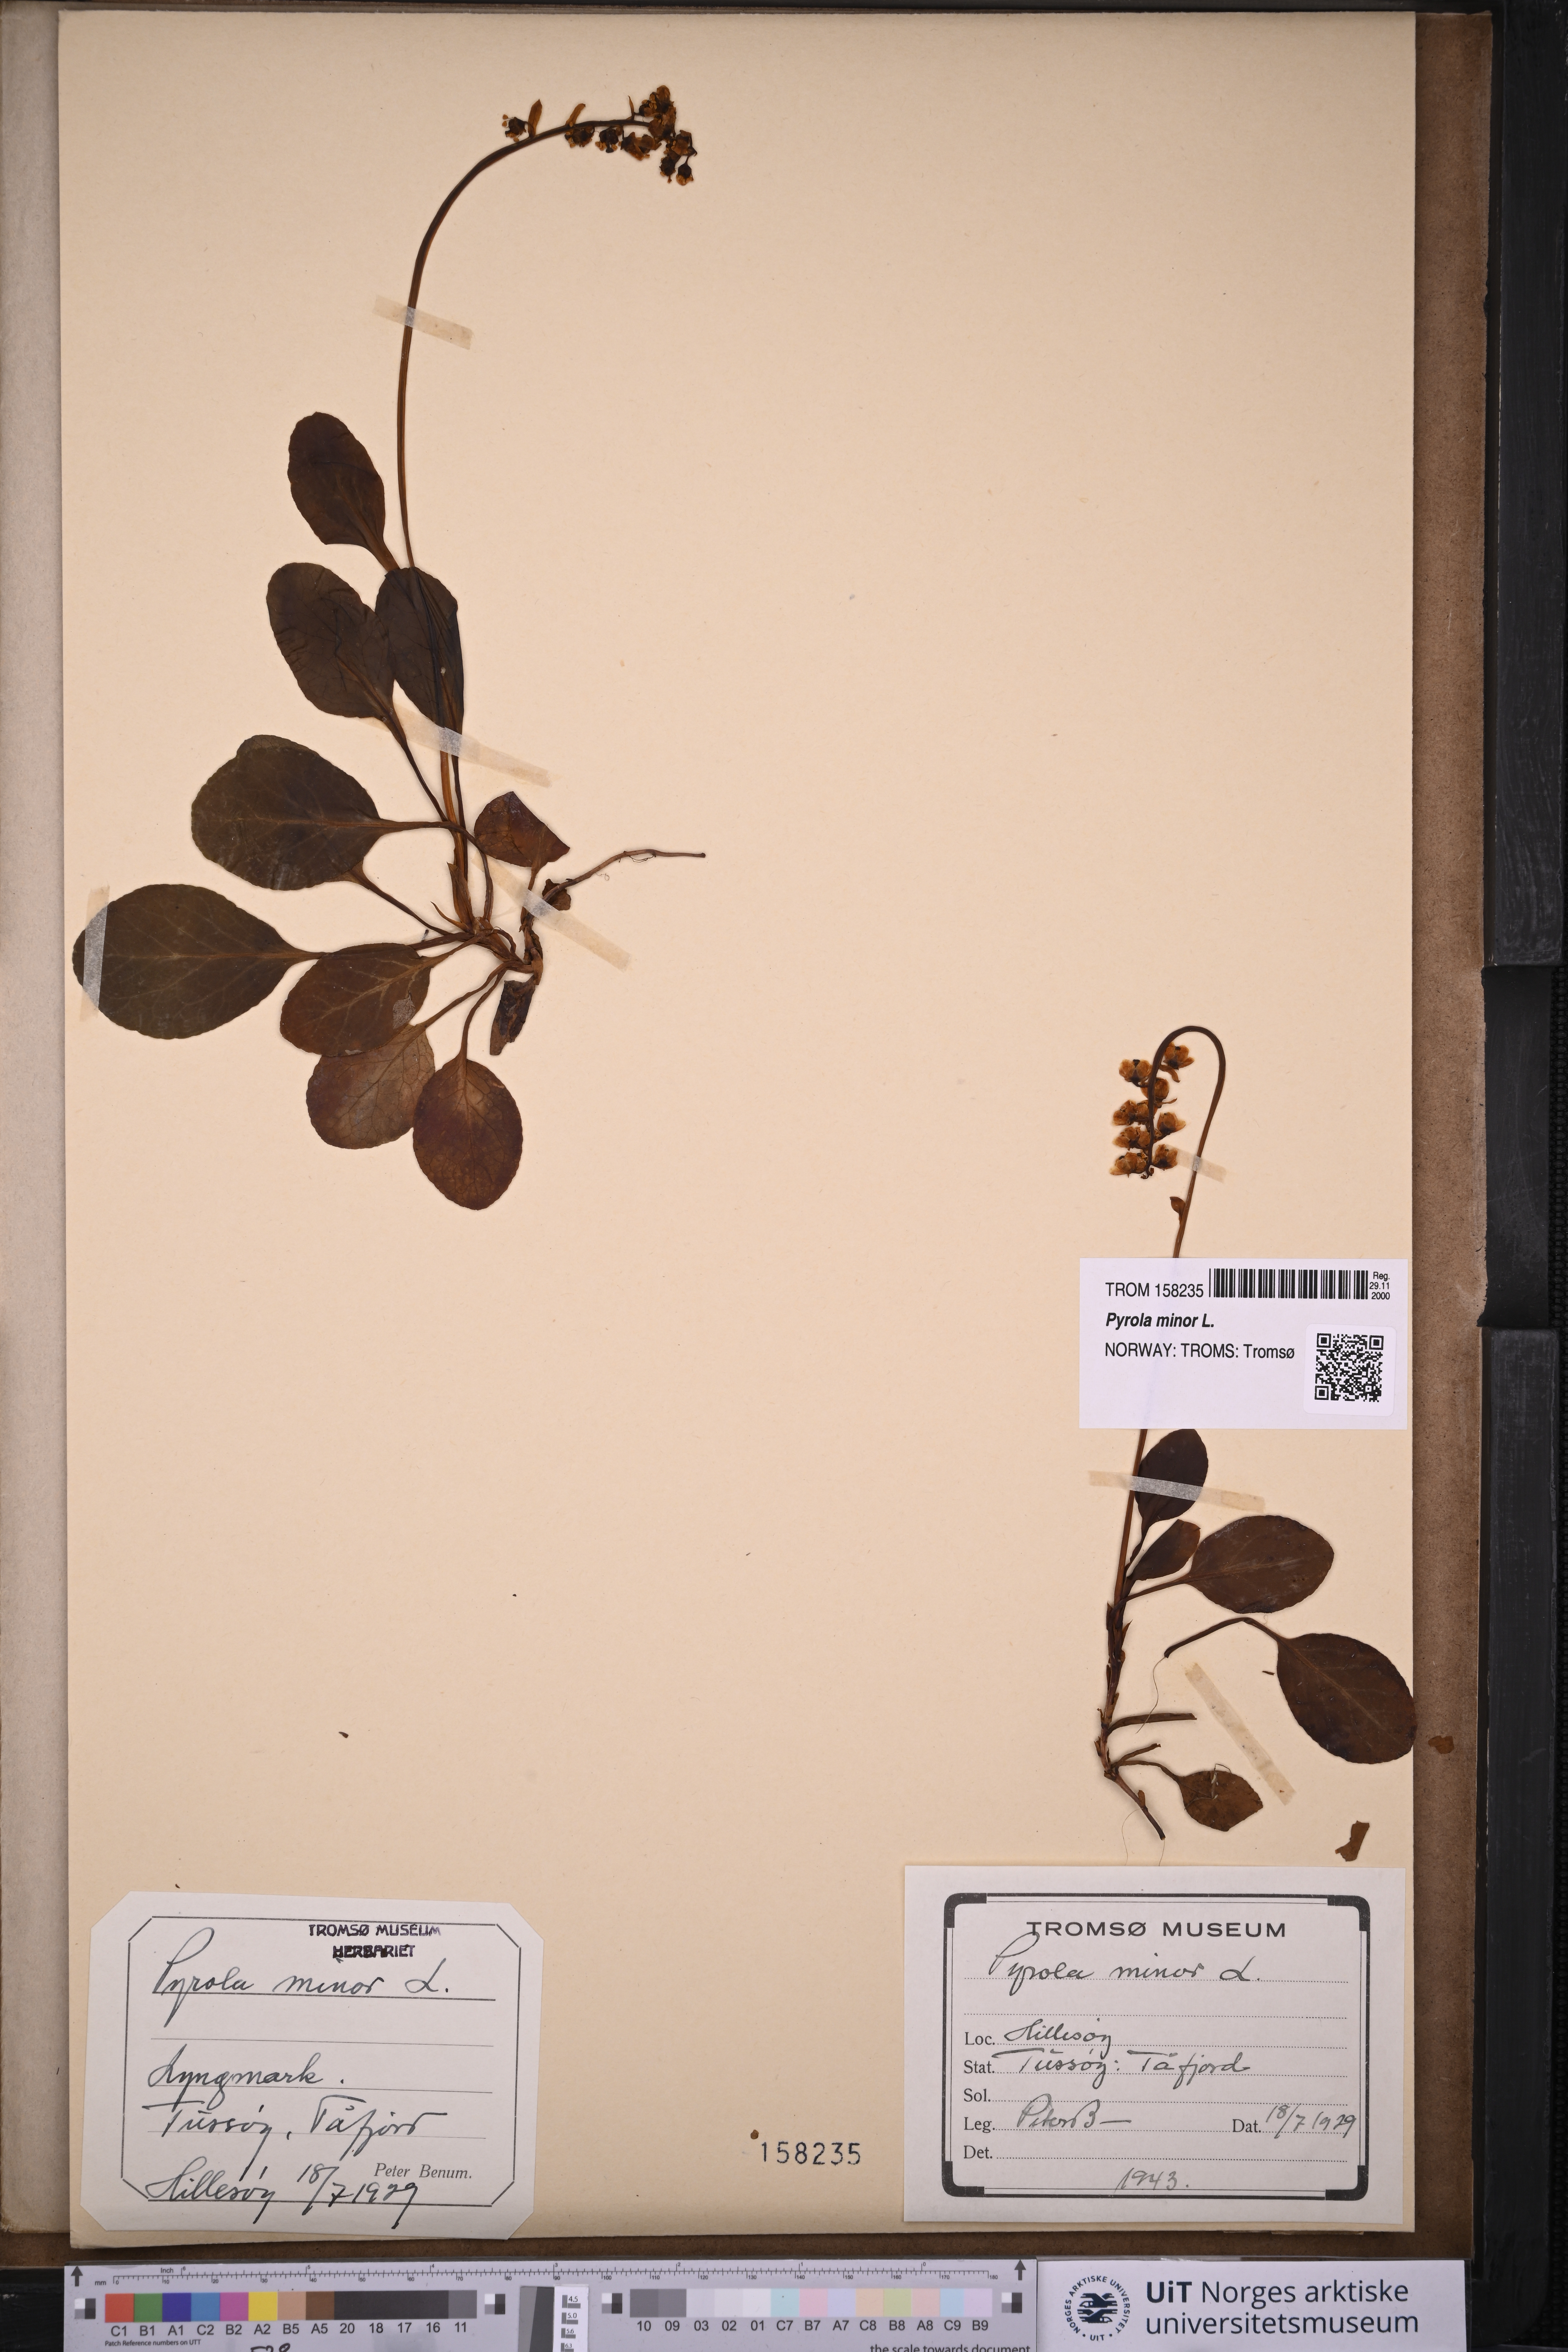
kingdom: Plantae
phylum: Tracheophyta
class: Magnoliopsida
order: Ericales
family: Ericaceae
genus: Pyrola
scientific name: Pyrola minor
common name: Common wintergreen
